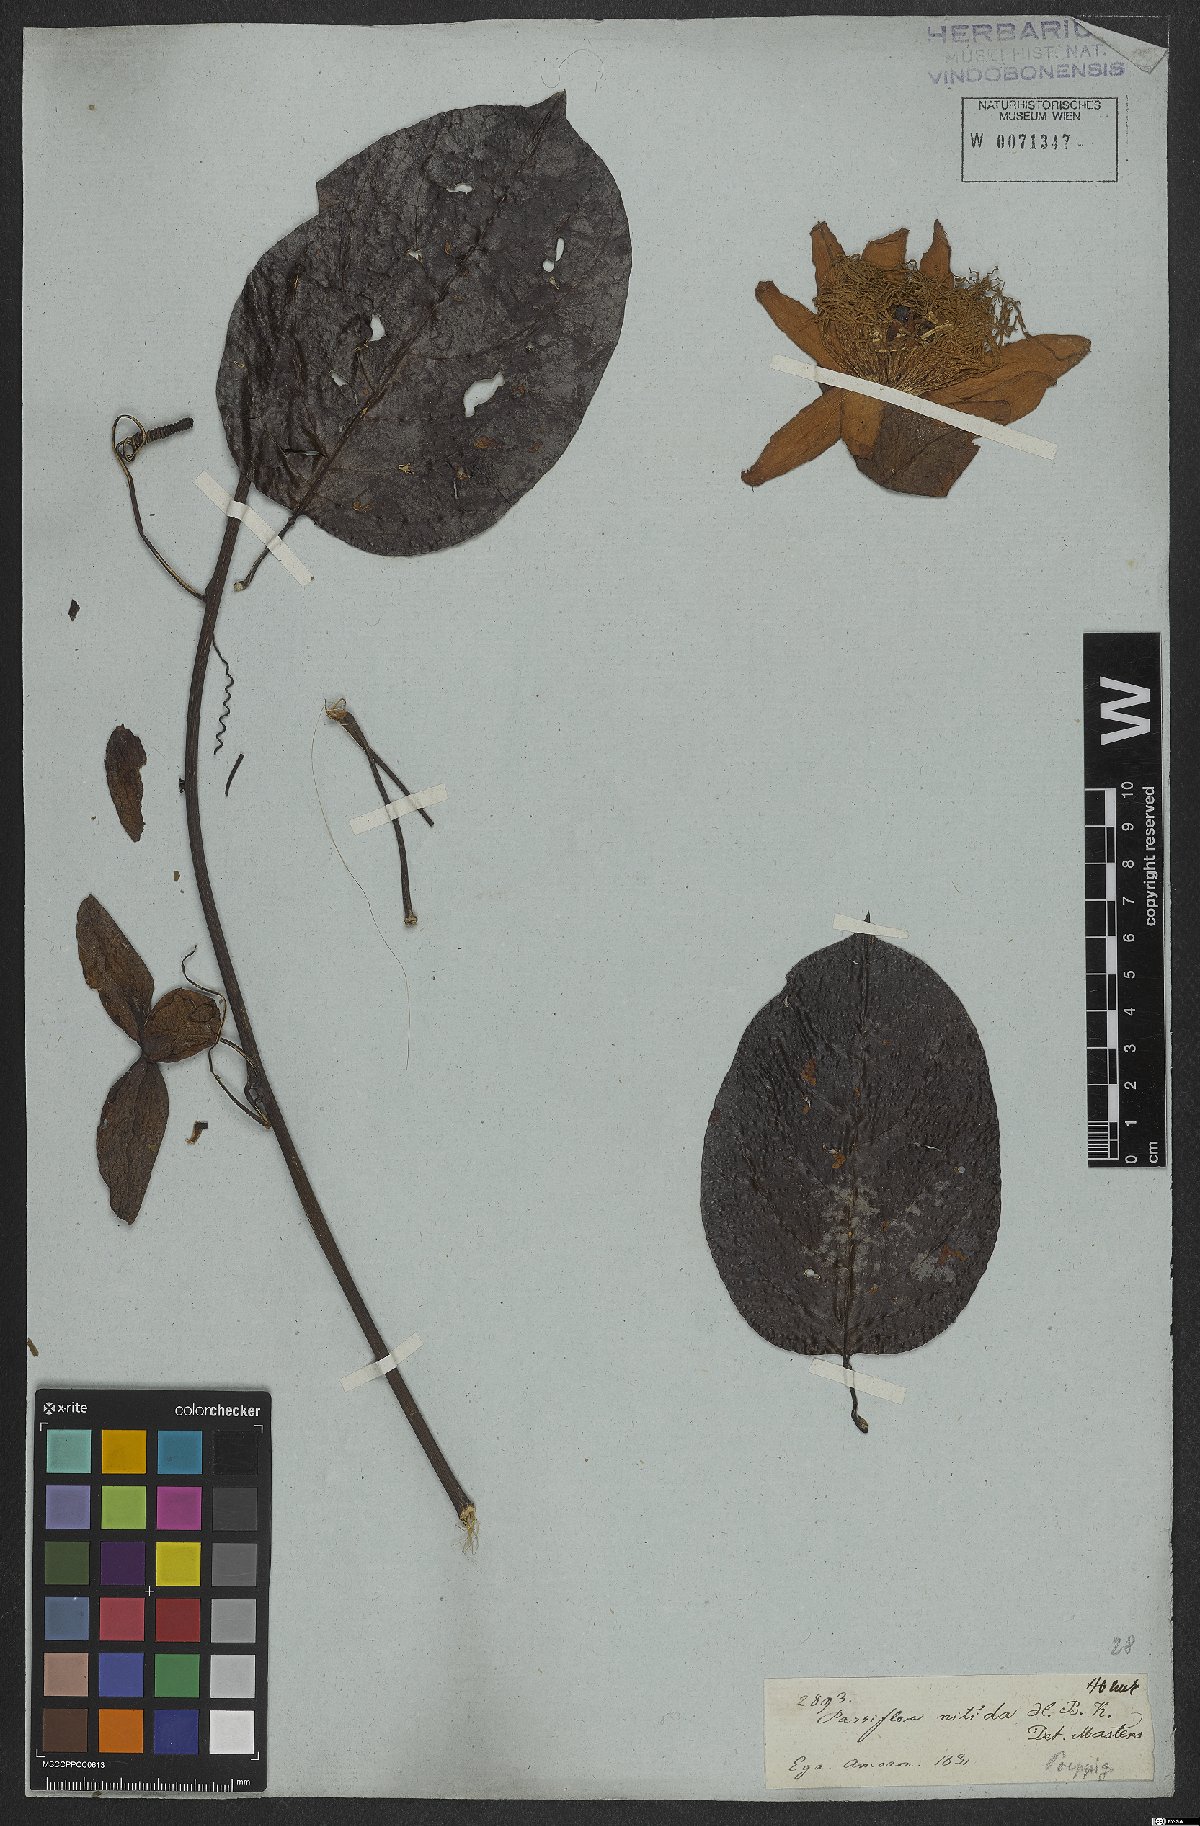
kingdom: Plantae
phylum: Tracheophyta
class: Magnoliopsida
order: Malpighiales
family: Passifloraceae
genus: Passiflora
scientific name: Passiflora nitida
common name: Bell-apple
